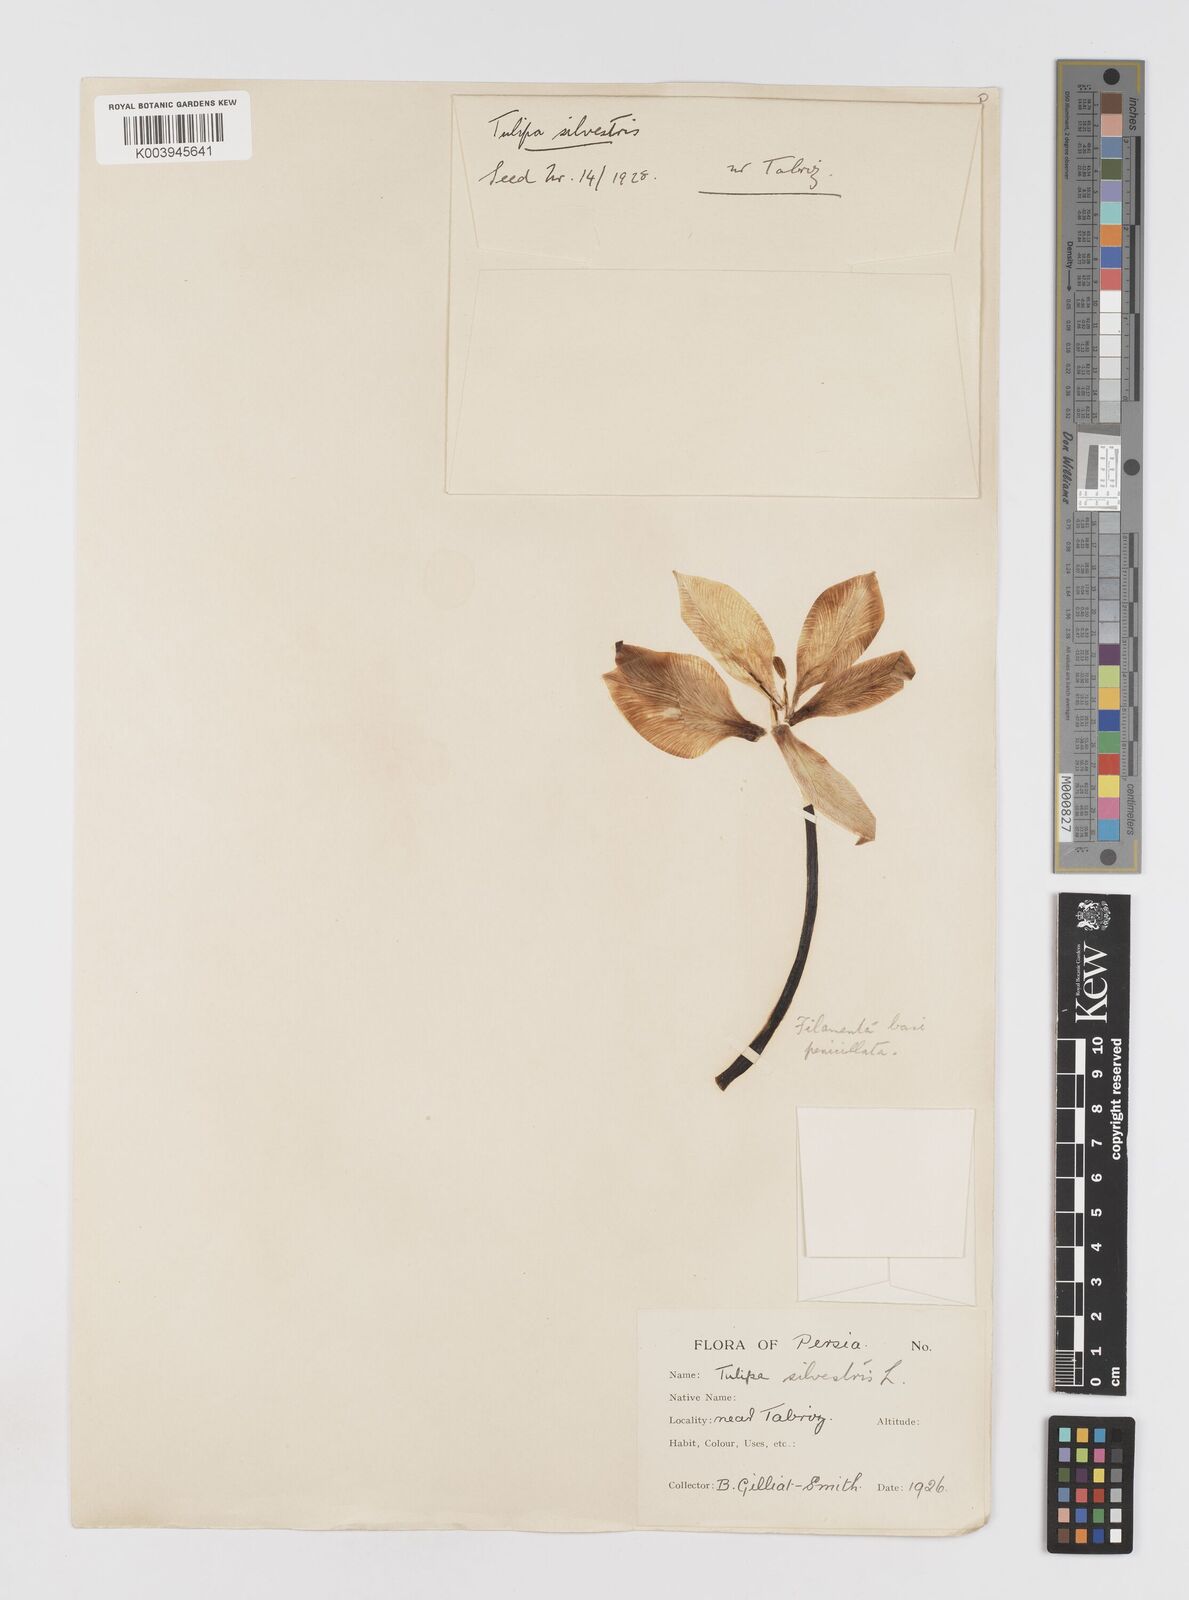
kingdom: Plantae
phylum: Tracheophyta
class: Liliopsida
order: Liliales
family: Liliaceae
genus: Tulipa
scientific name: Tulipa sylvestris
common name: Wild tulip
